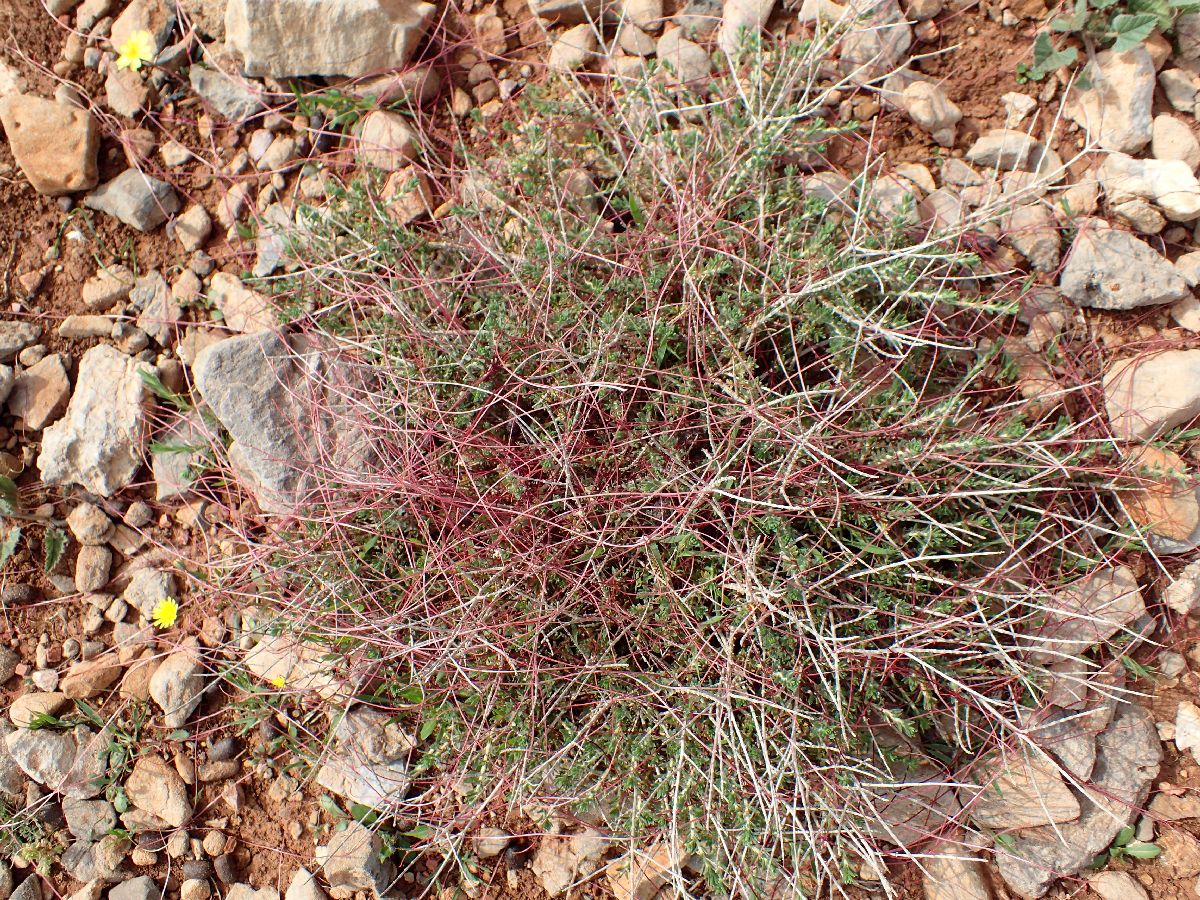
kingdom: Plantae
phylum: Tracheophyta
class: Magnoliopsida
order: Solanales
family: Convolvulaceae
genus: Cuscuta
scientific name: Cuscuta
